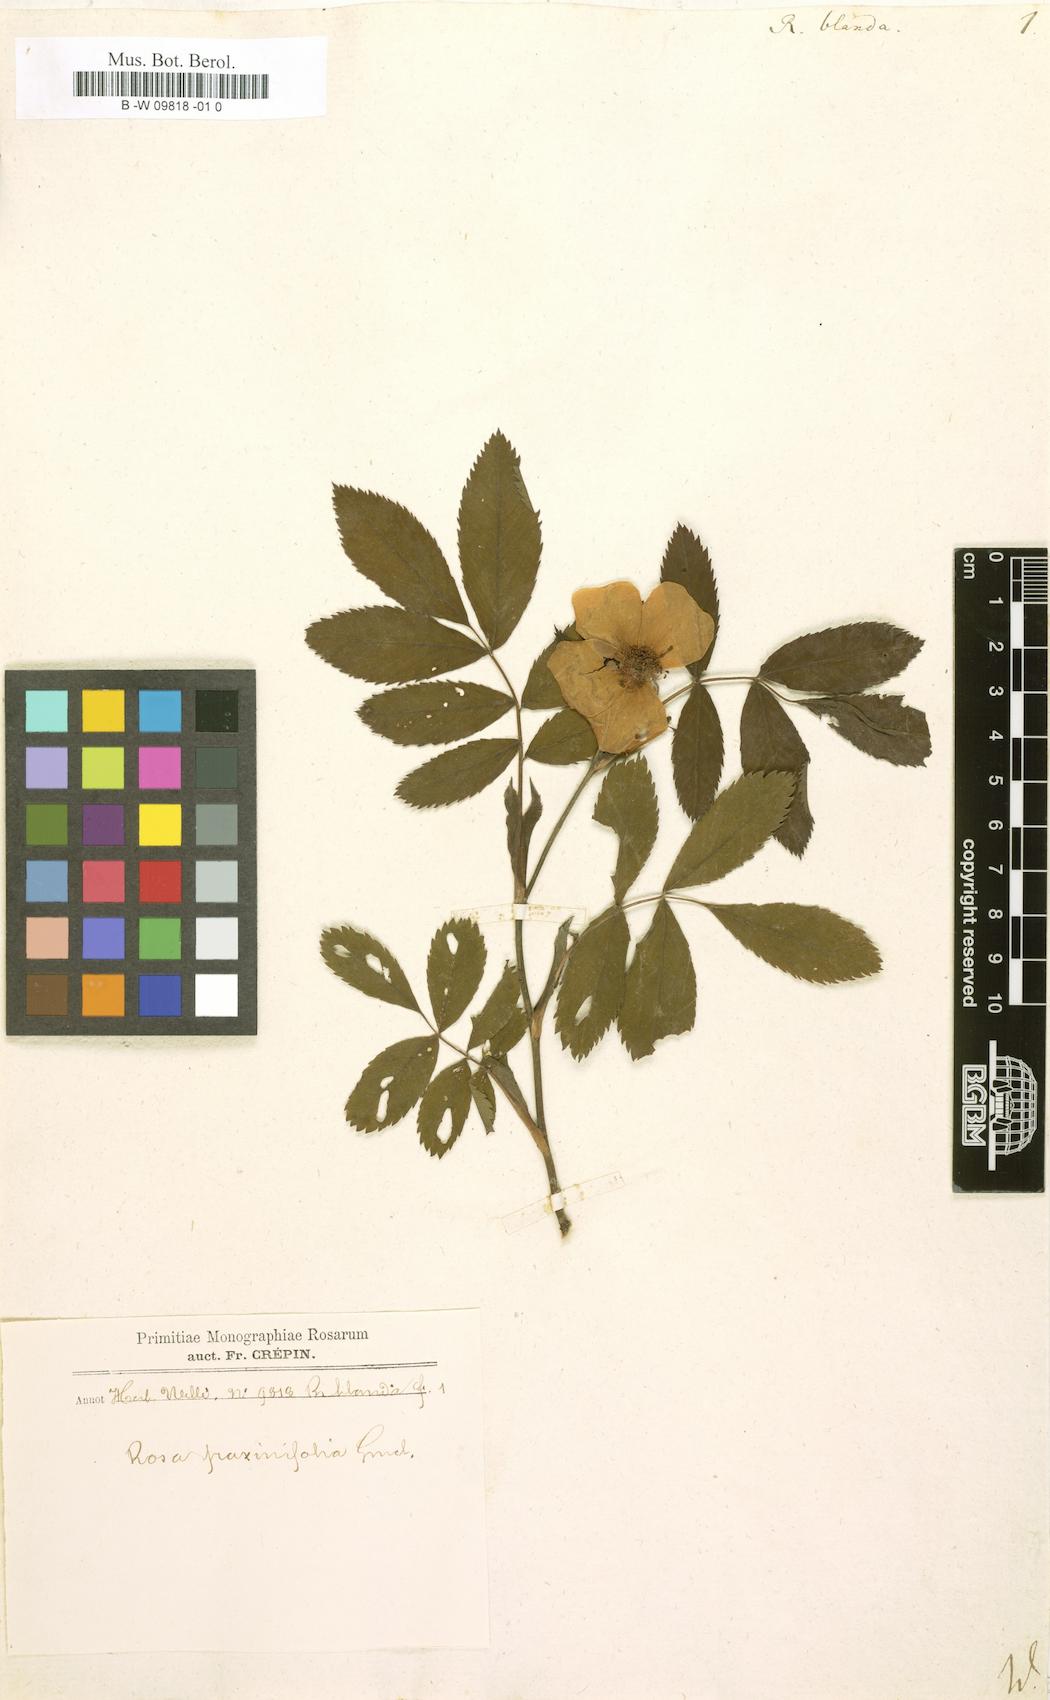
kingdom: Plantae
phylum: Tracheophyta
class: Magnoliopsida
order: Rosales
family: Rosaceae
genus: Rosa
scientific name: Rosa blanda
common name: Smooth rose
